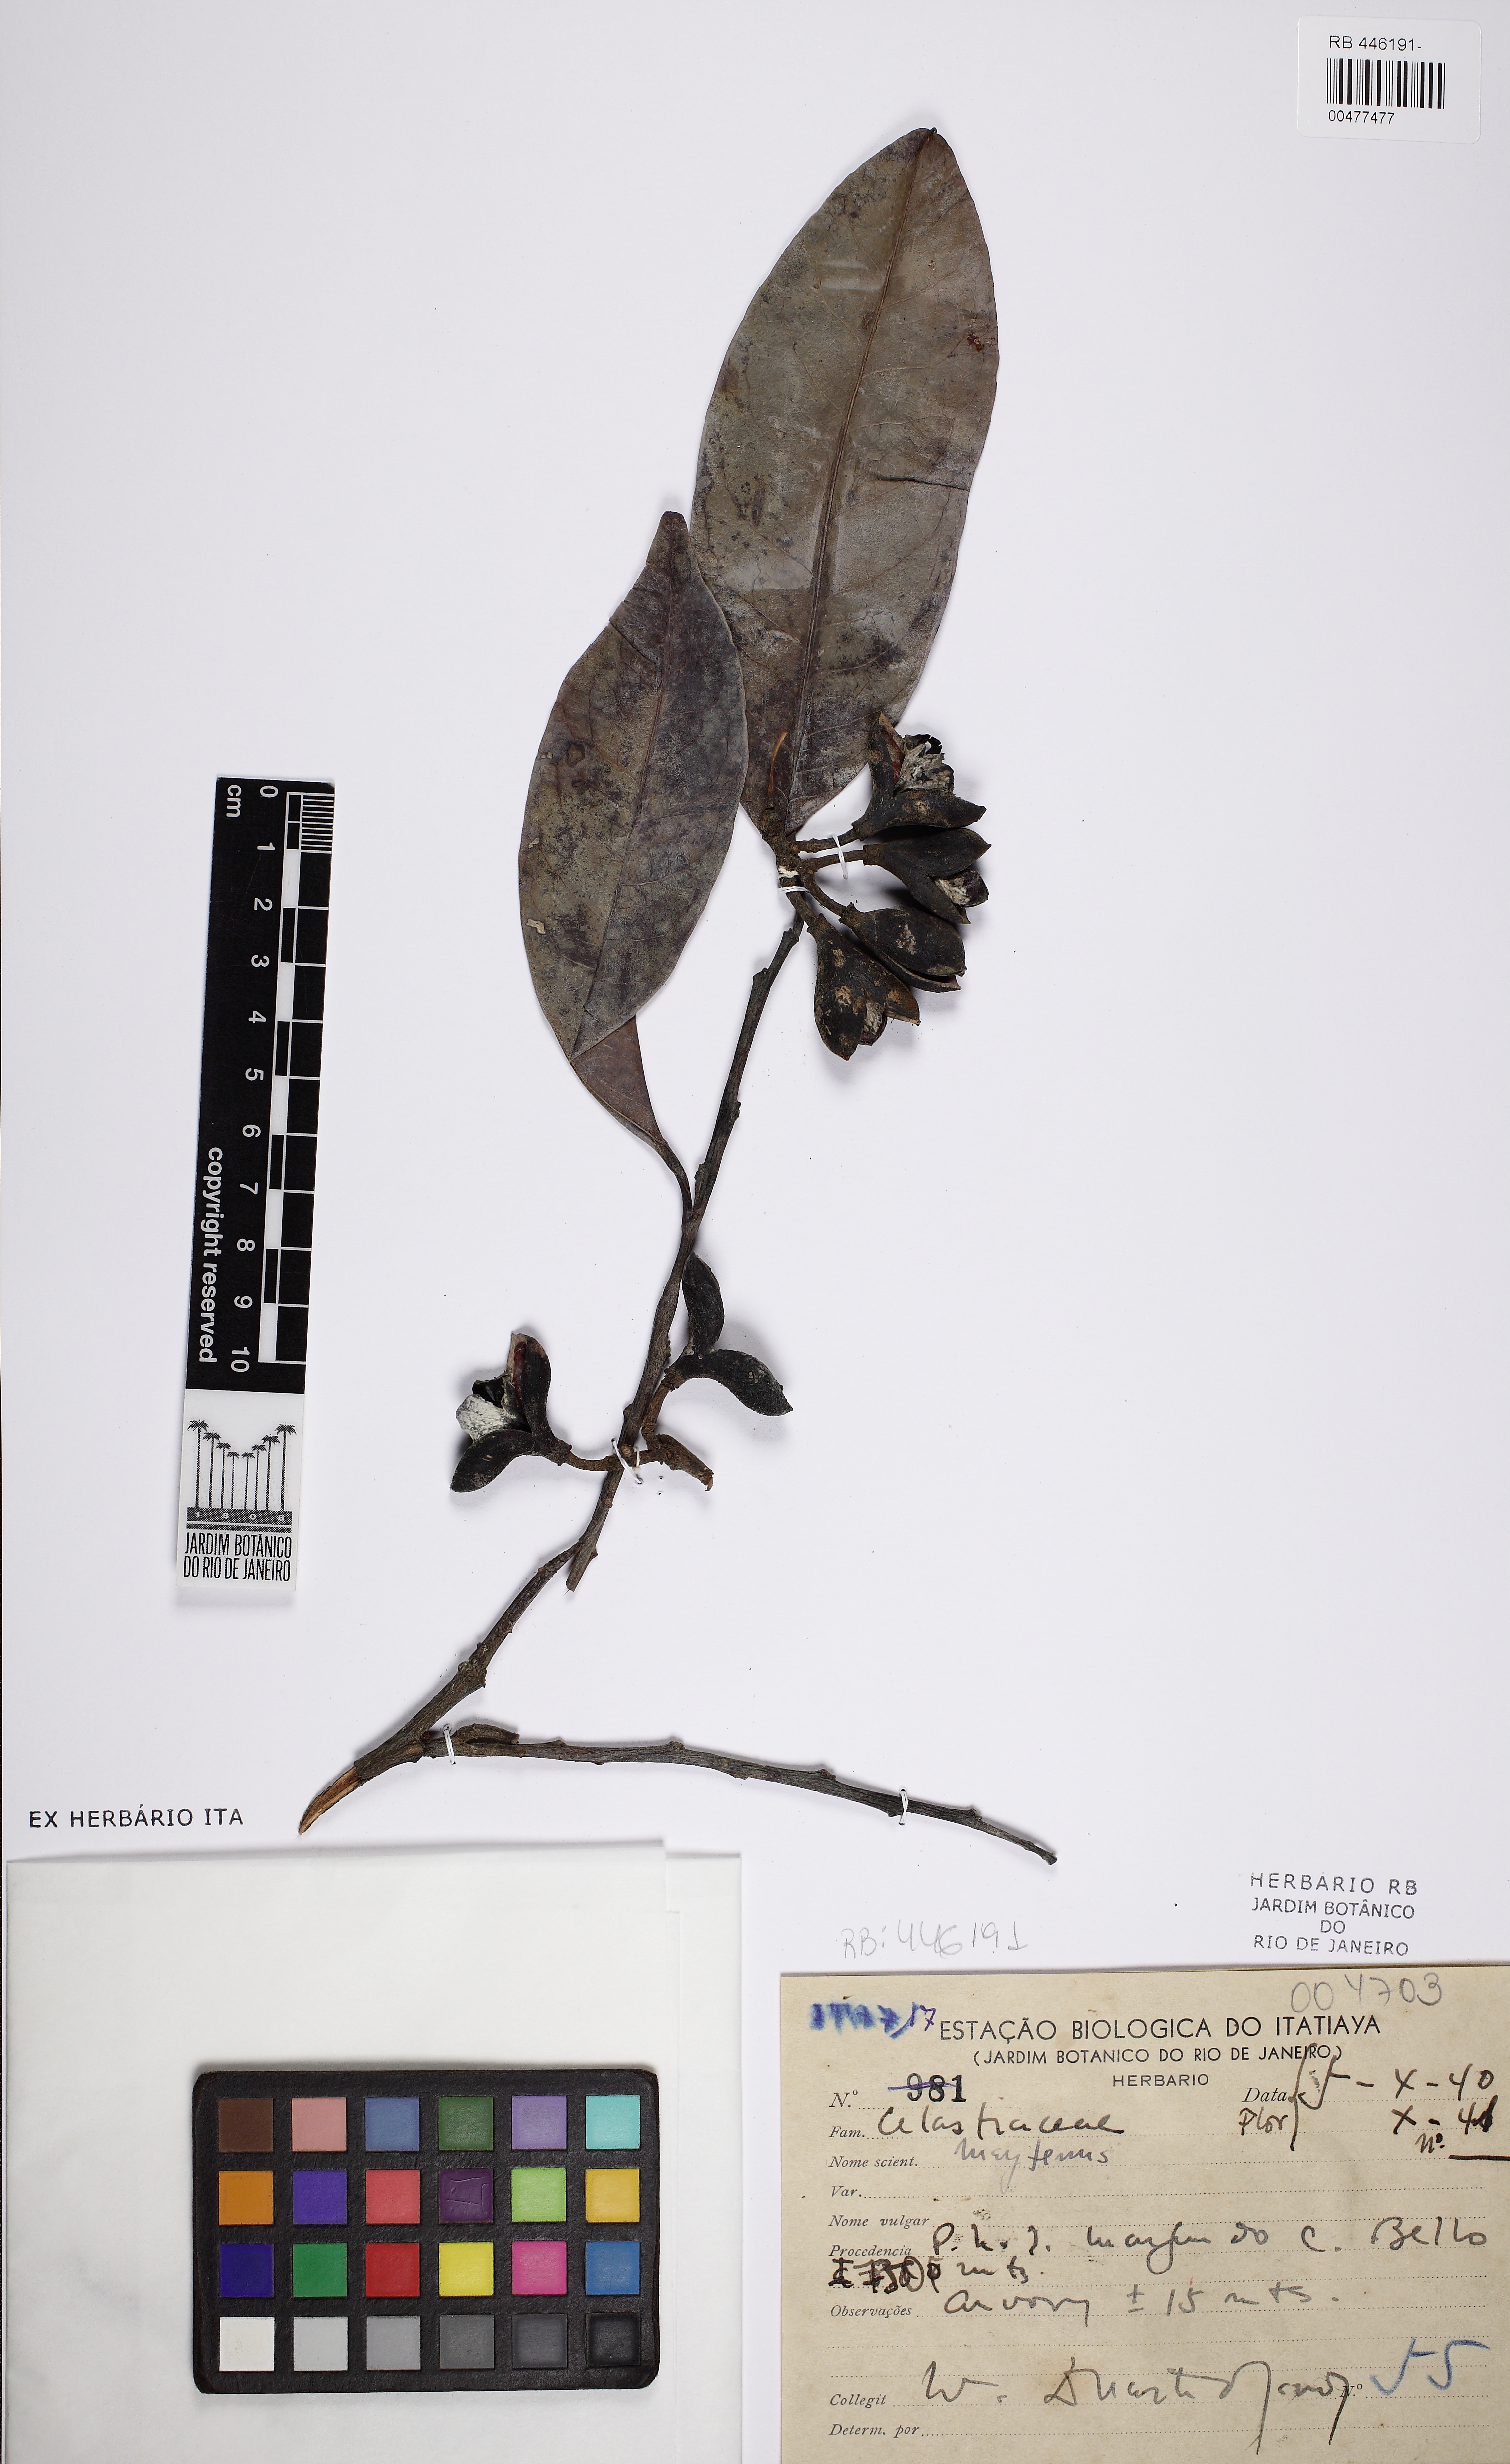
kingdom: Plantae
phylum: Tracheophyta
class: Magnoliopsida
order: Celastrales
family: Celastraceae
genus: Maytenus
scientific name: Maytenus
